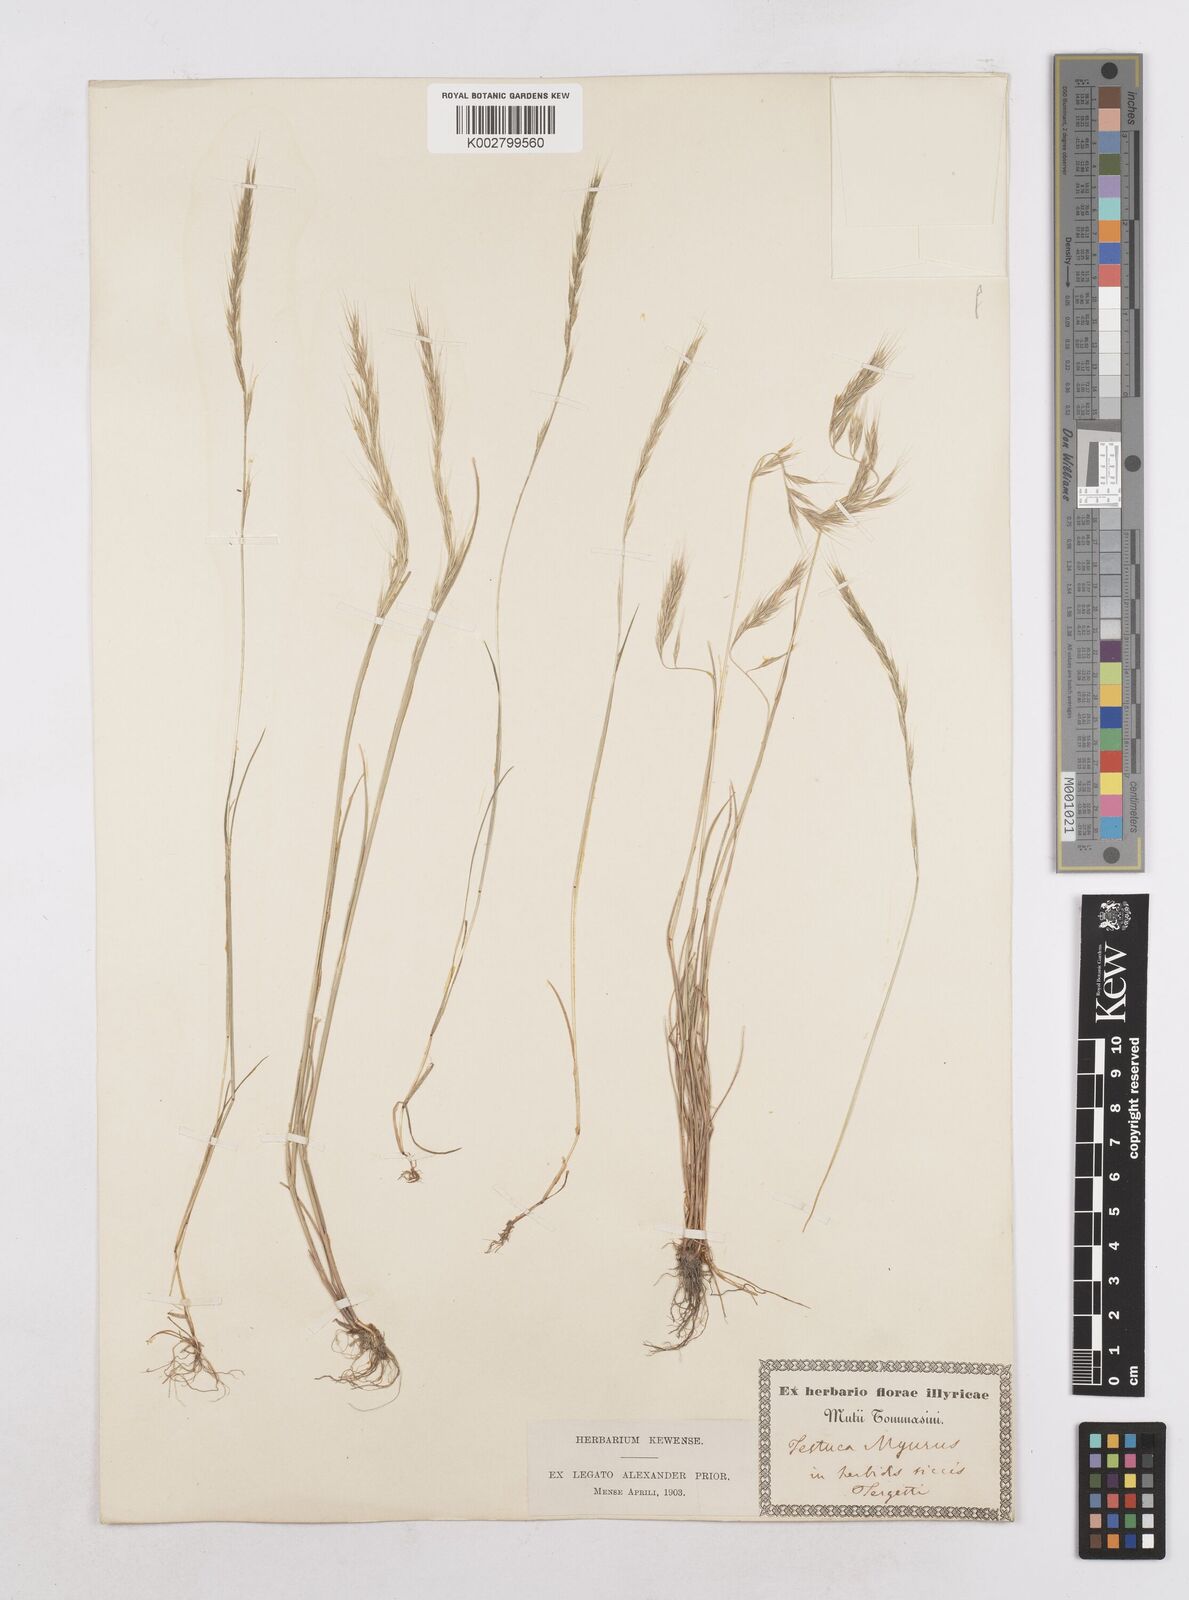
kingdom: Plantae
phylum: Tracheophyta
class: Liliopsida
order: Poales
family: Poaceae
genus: Festuca
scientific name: Festuca myuros
